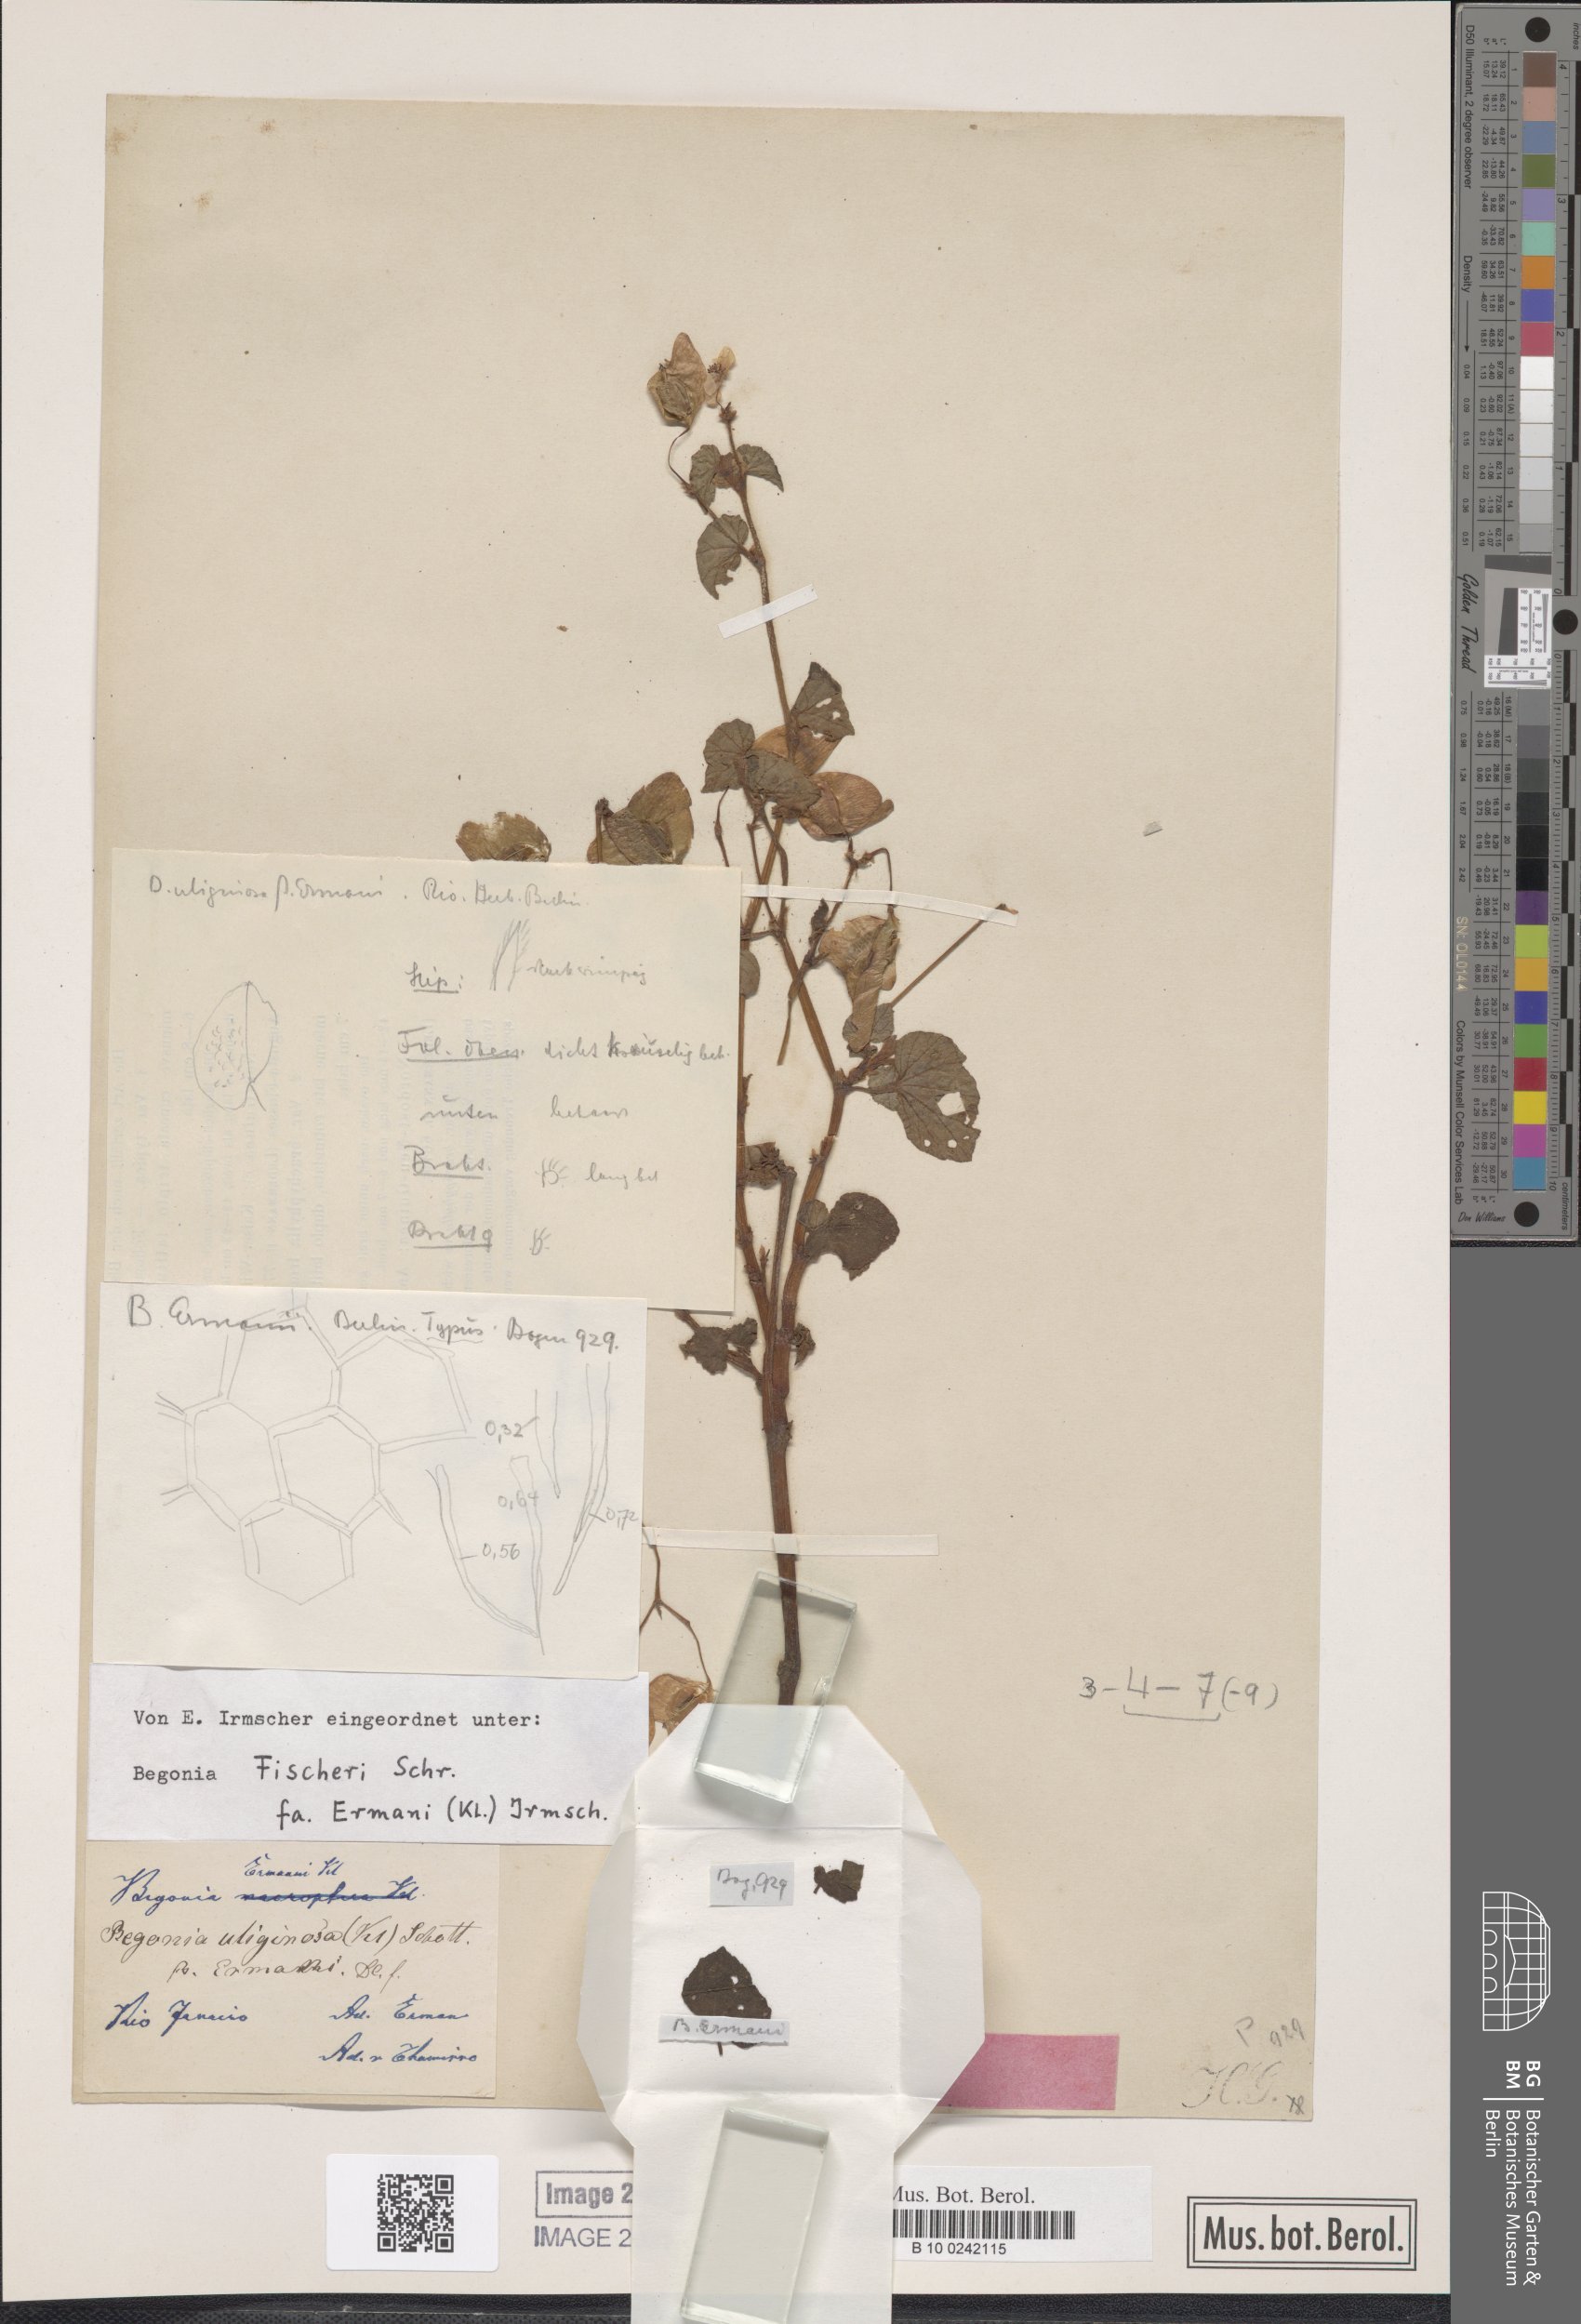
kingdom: Plantae
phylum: Tracheophyta
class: Magnoliopsida
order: Cucurbitales
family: Begoniaceae
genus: Begonia
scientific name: Begonia fischeri
